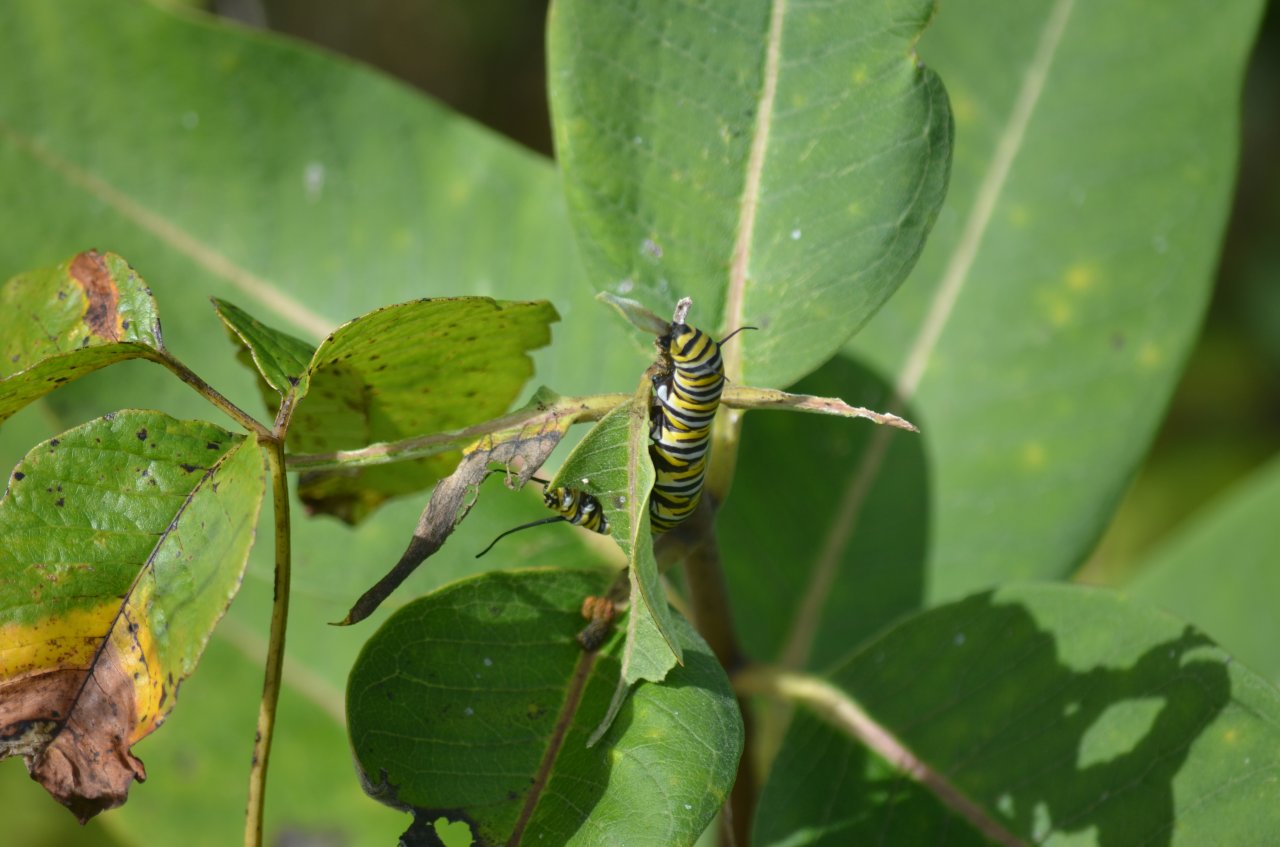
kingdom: Animalia
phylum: Arthropoda
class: Insecta
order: Lepidoptera
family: Nymphalidae
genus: Danaus
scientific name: Danaus plexippus
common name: Monarch
